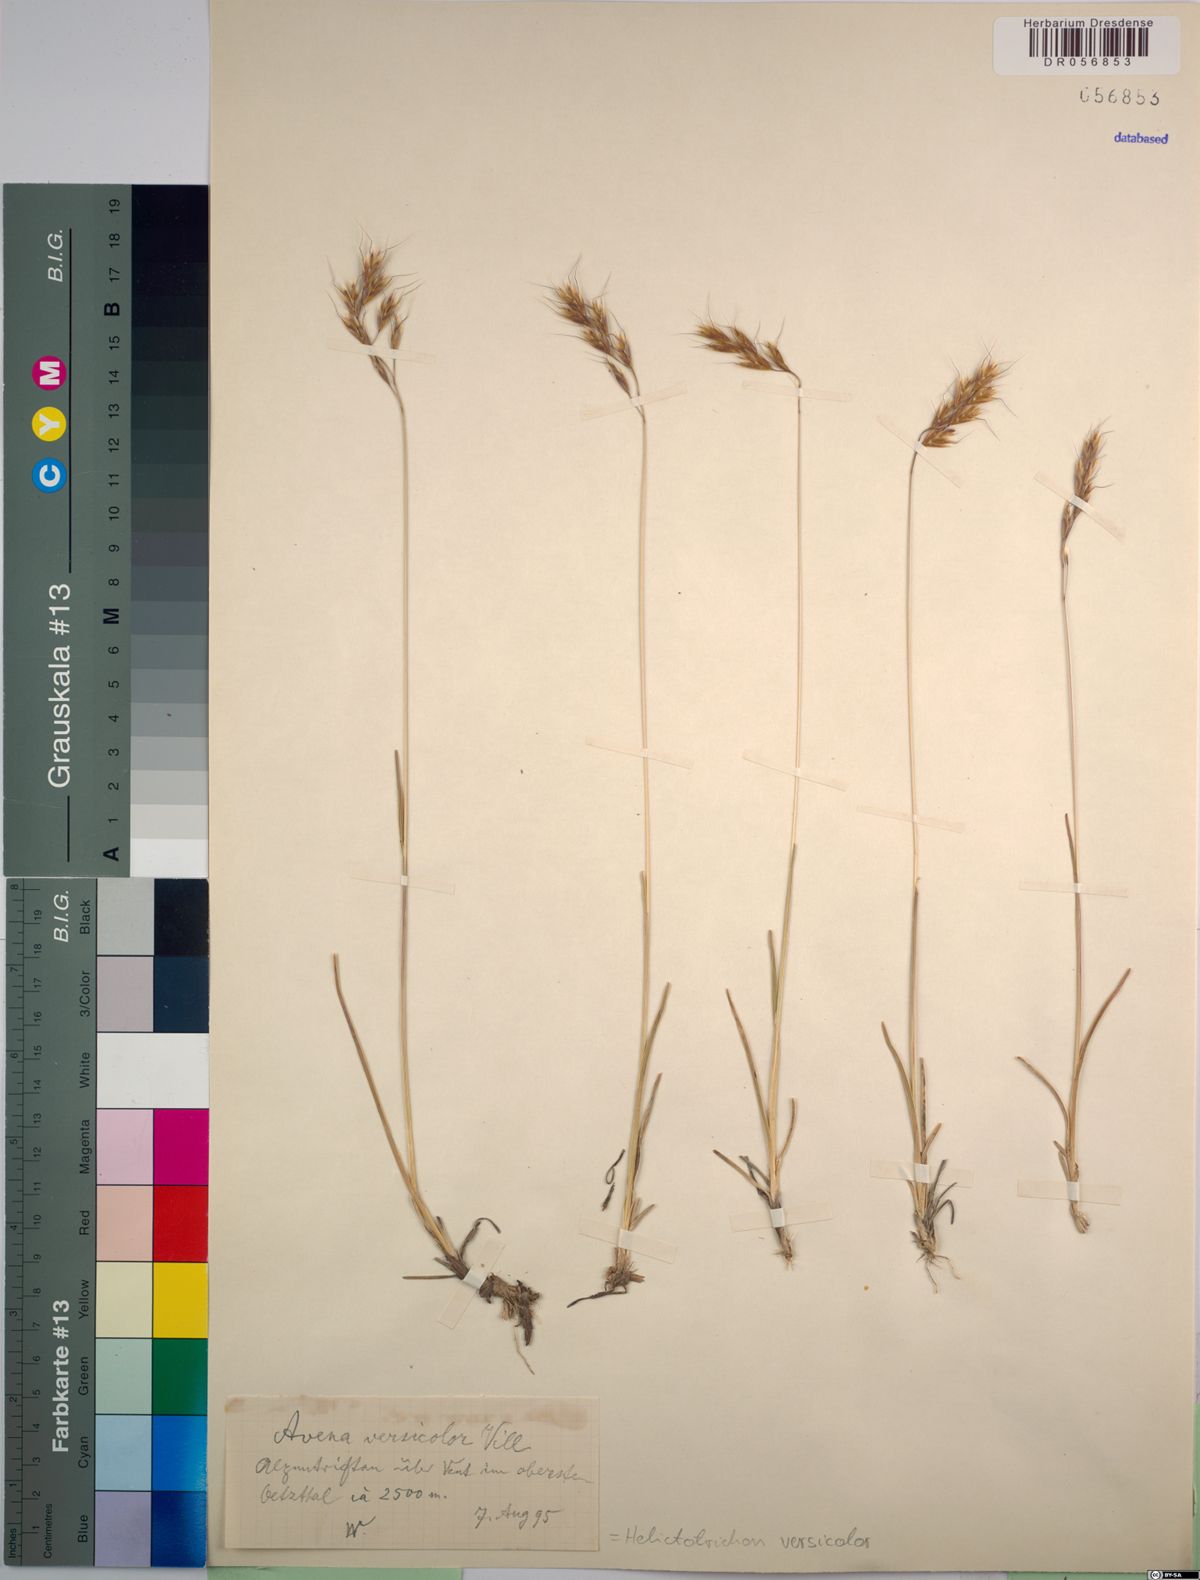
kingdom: Plantae
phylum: Tracheophyta
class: Liliopsida
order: Poales
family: Poaceae
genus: Helictochloa
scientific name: Helictochloa versicolor
